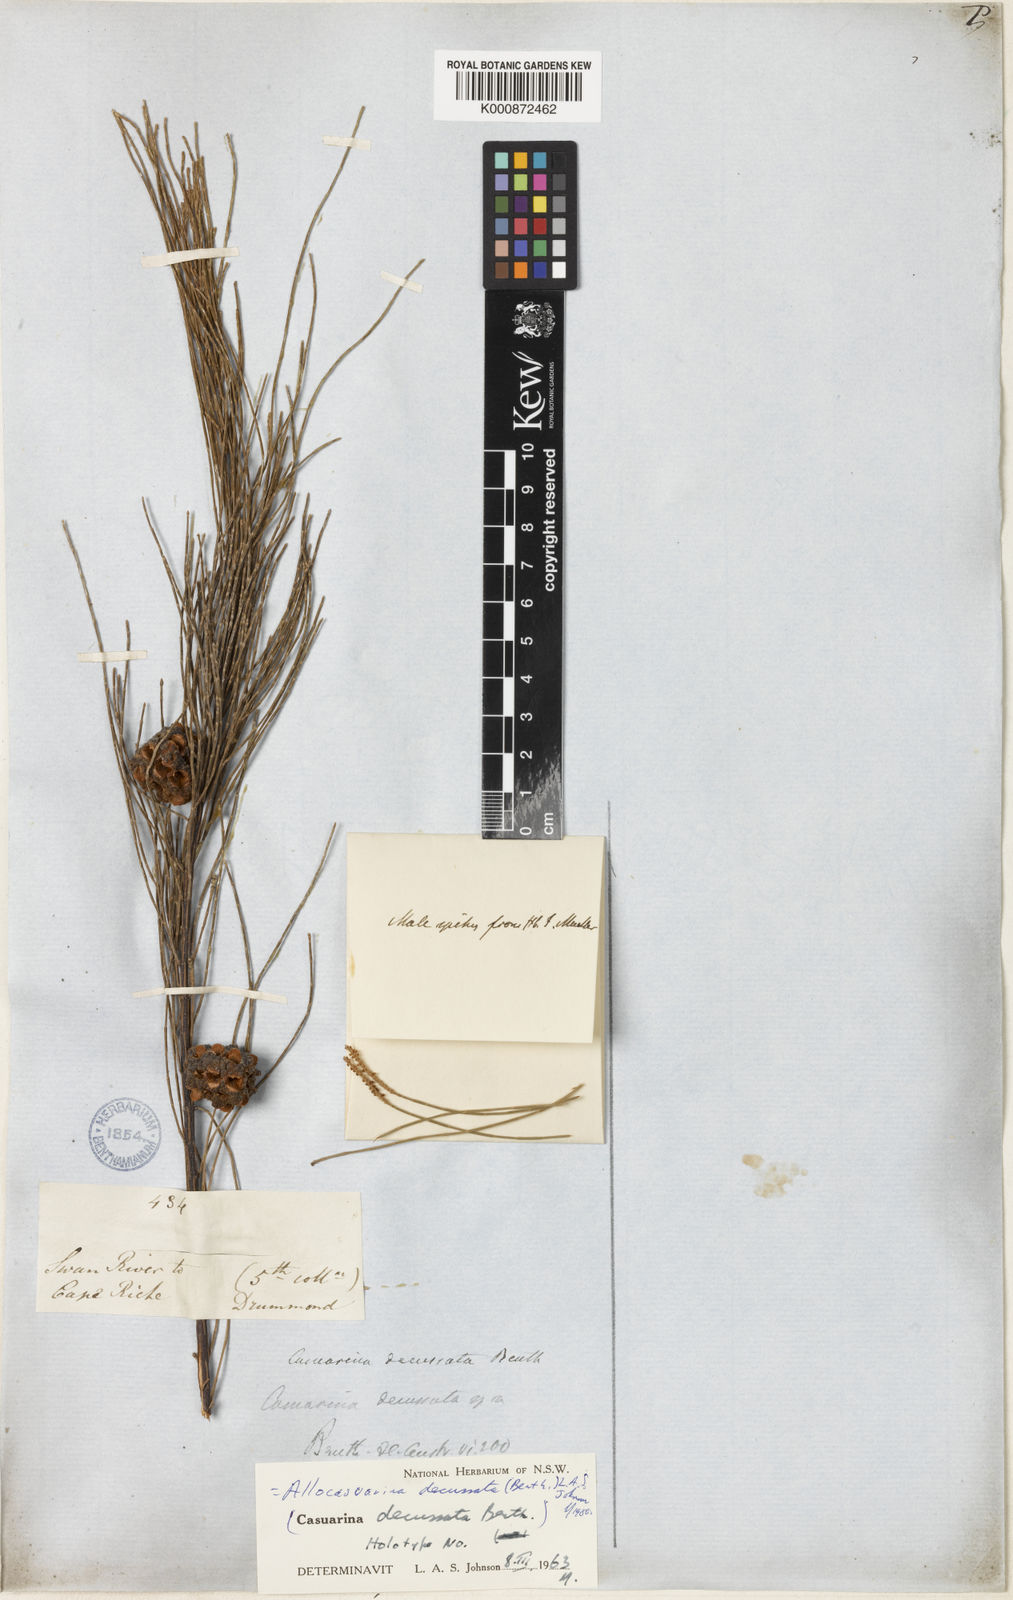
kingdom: Plantae
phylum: Tracheophyta
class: Magnoliopsida
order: Fagales
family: Casuarinaceae
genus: Allocasuarina
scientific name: Allocasuarina decussata
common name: Karri she-oak
